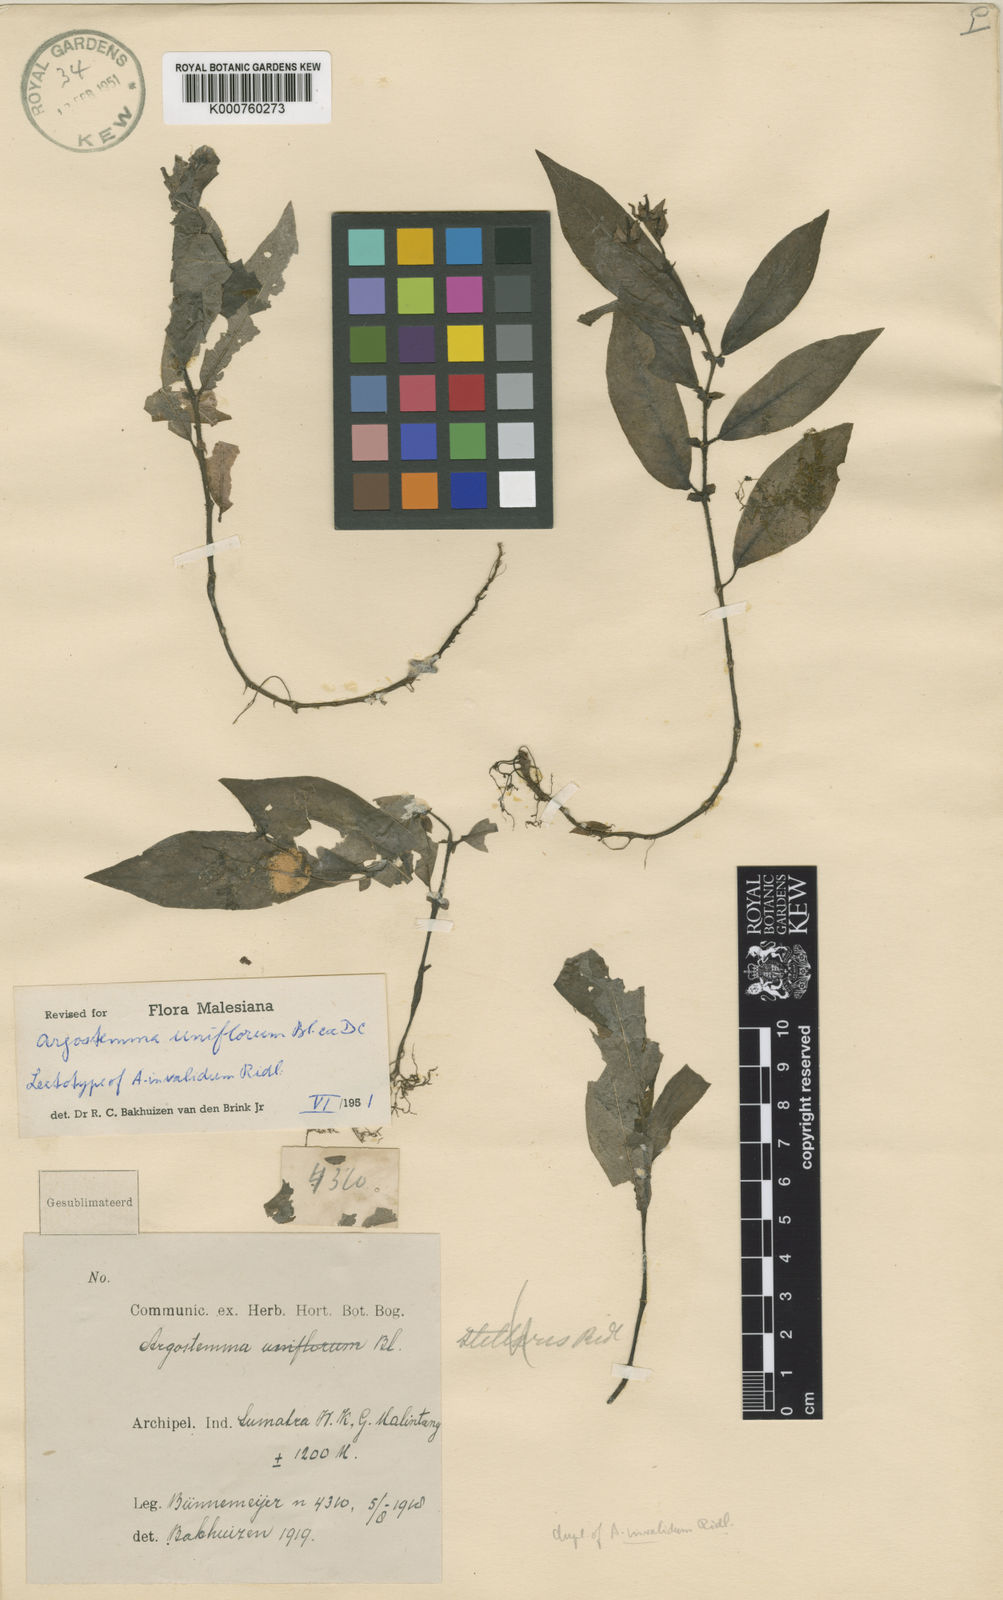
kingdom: Plantae
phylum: Tracheophyta
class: Magnoliopsida
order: Gentianales
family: Rubiaceae
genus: Argostemma
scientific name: Argostemma uniflorum
